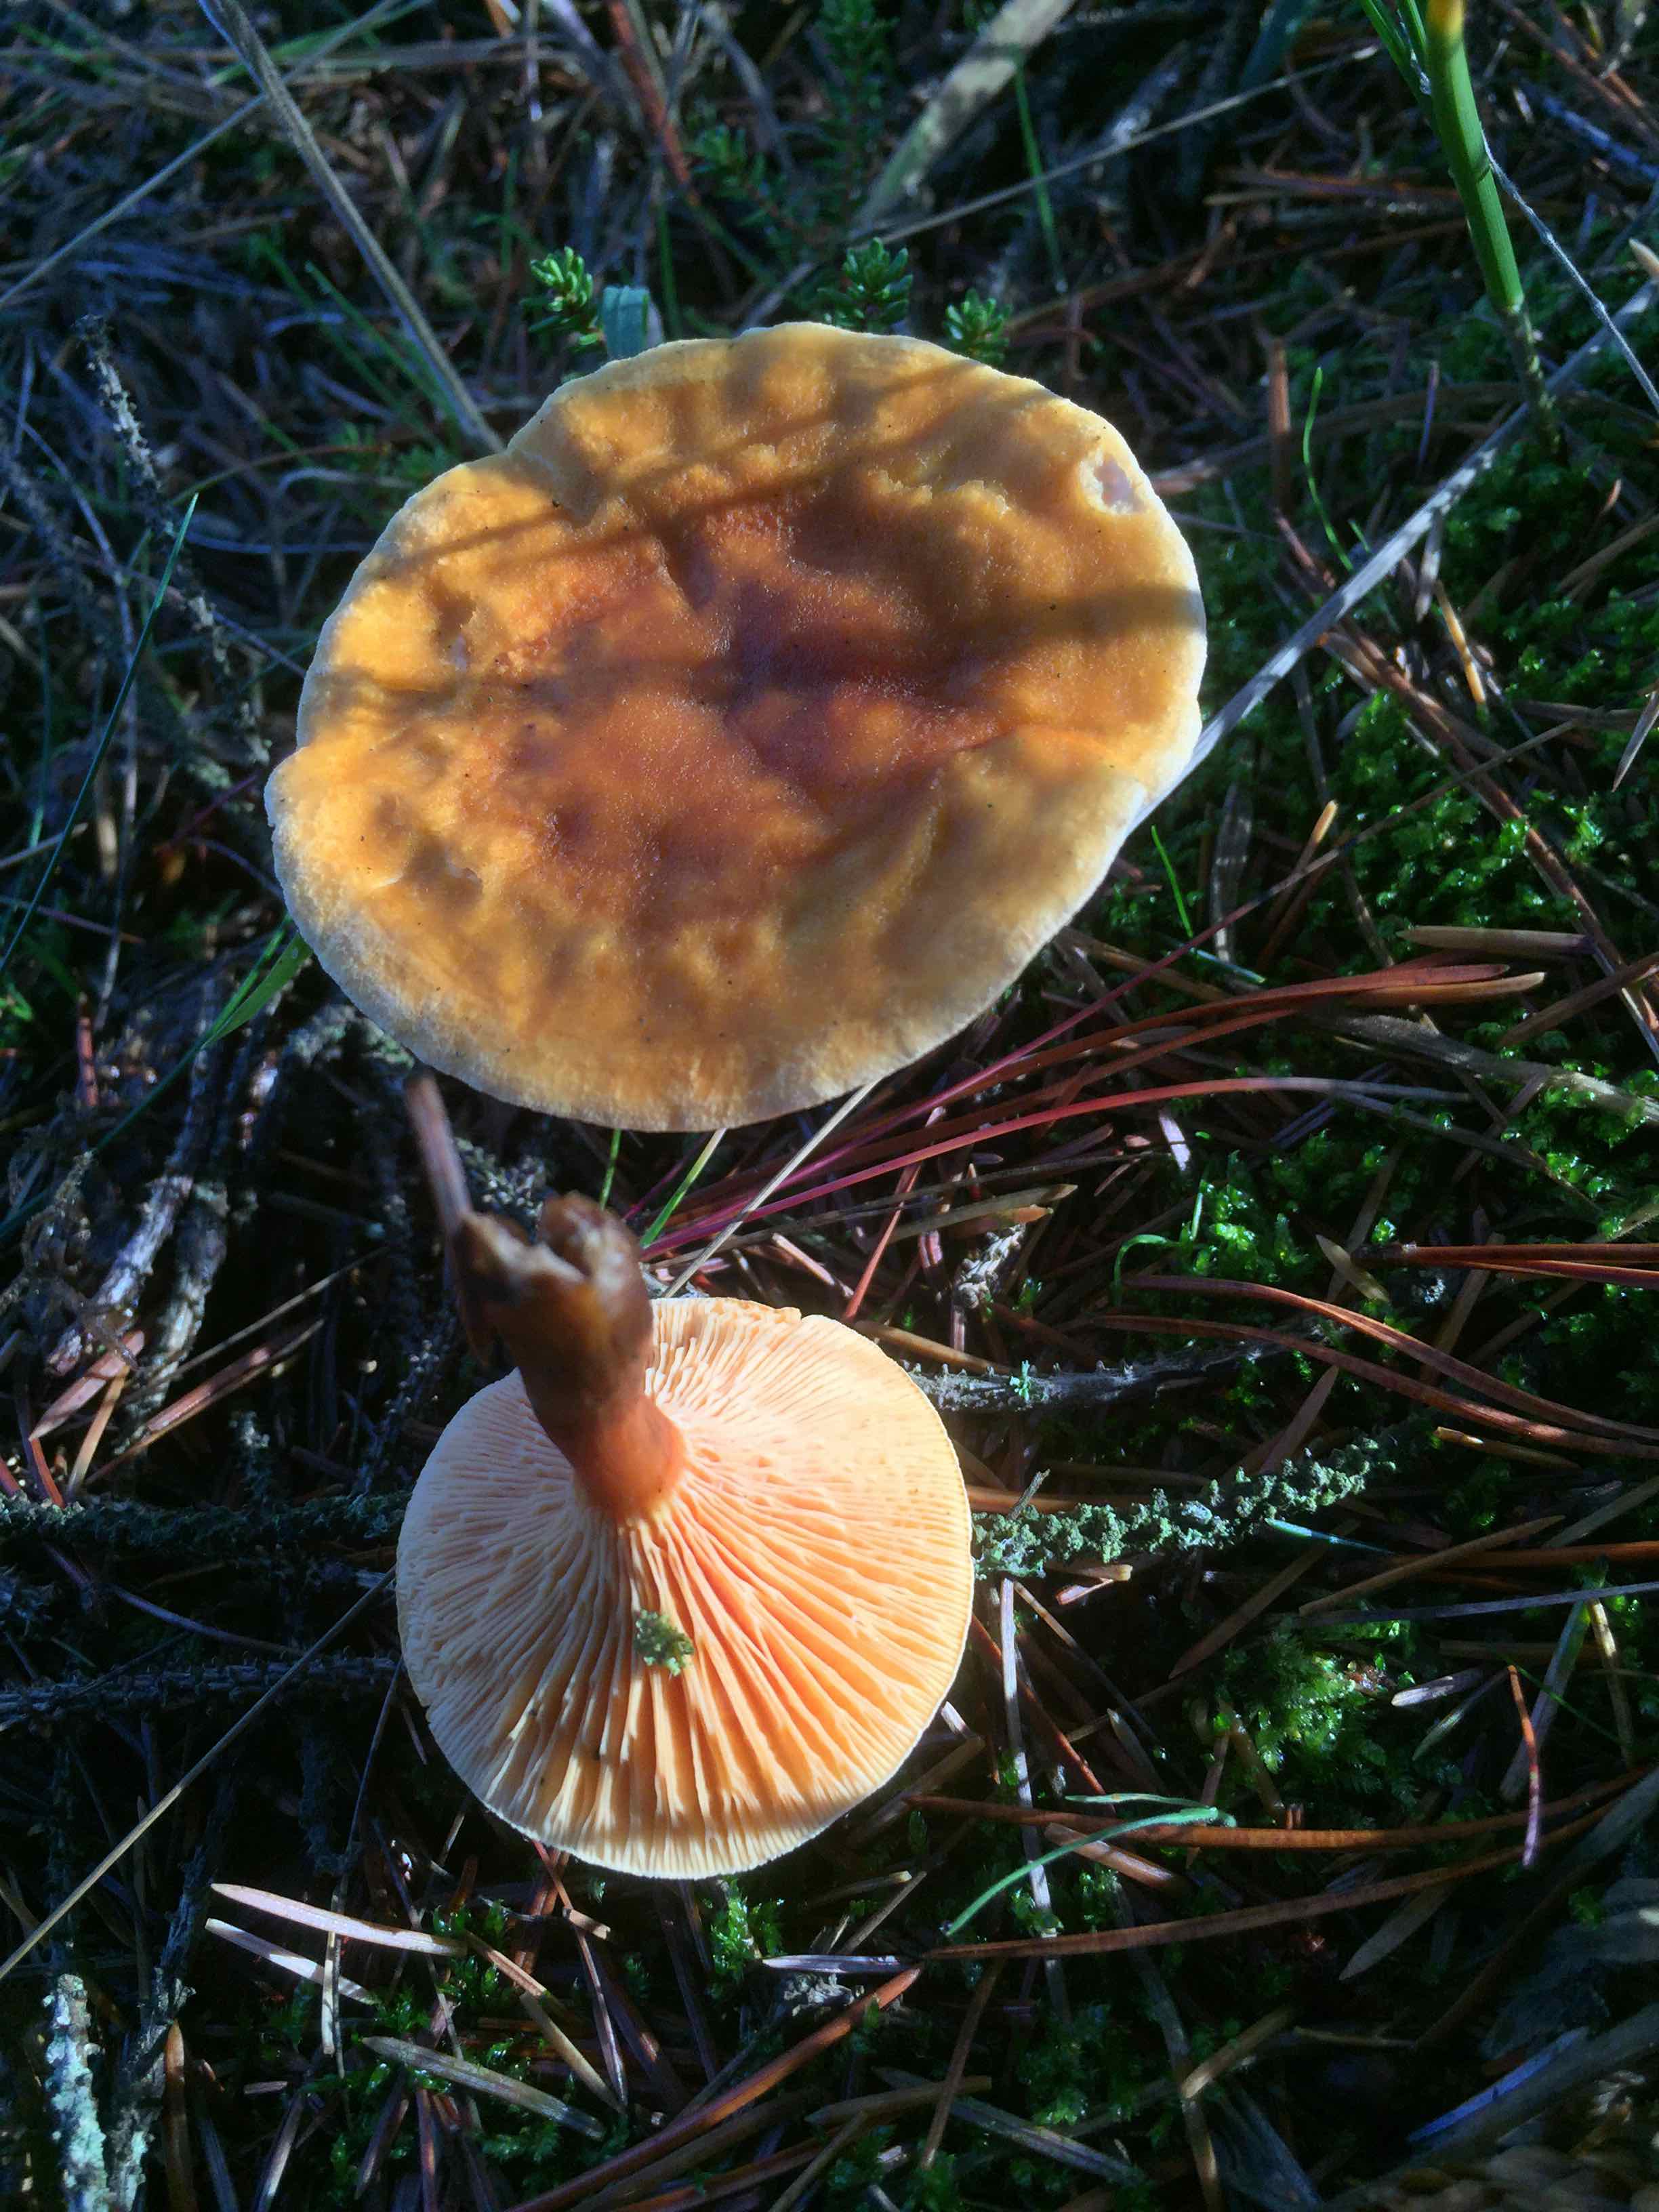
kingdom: Fungi
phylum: Basidiomycota
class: Agaricomycetes
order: Boletales
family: Hygrophoropsidaceae
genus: Hygrophoropsis
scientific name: Hygrophoropsis aurantiaca
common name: almindelig orangekantarel
